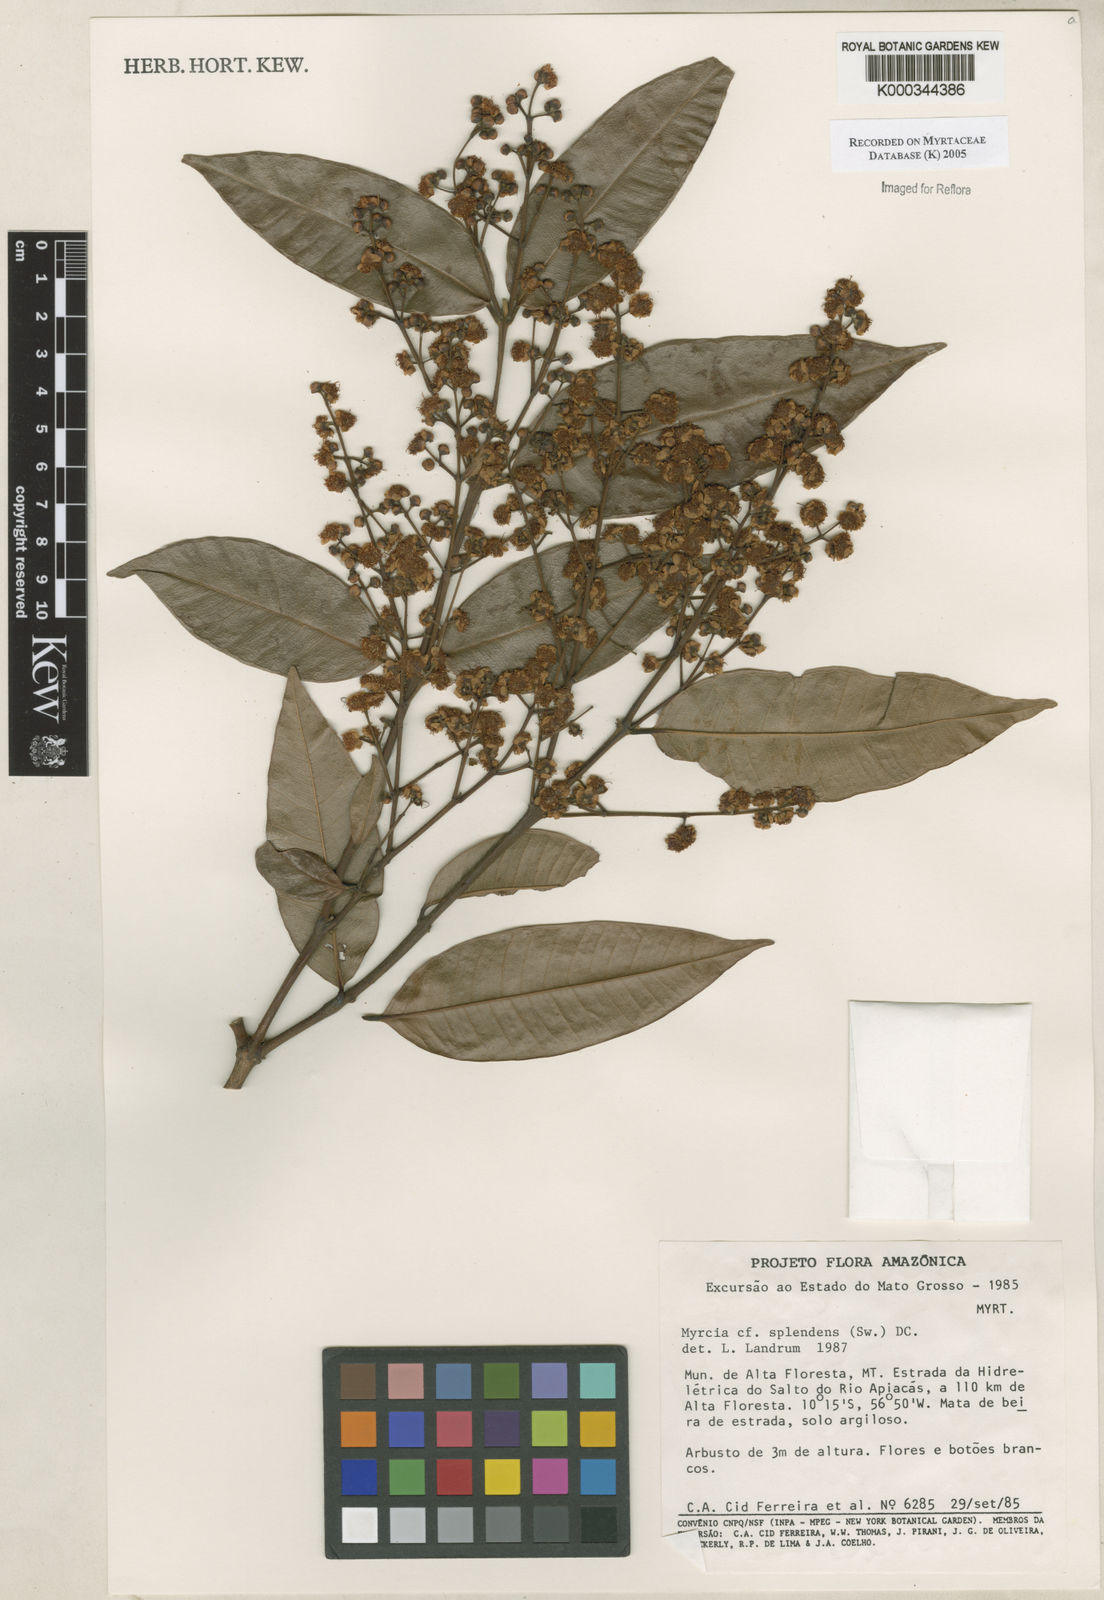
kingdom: Plantae
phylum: Tracheophyta
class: Magnoliopsida
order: Myrtales
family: Myrtaceae
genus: Myrcia
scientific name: Myrcia splendens
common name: Surinam cherry
